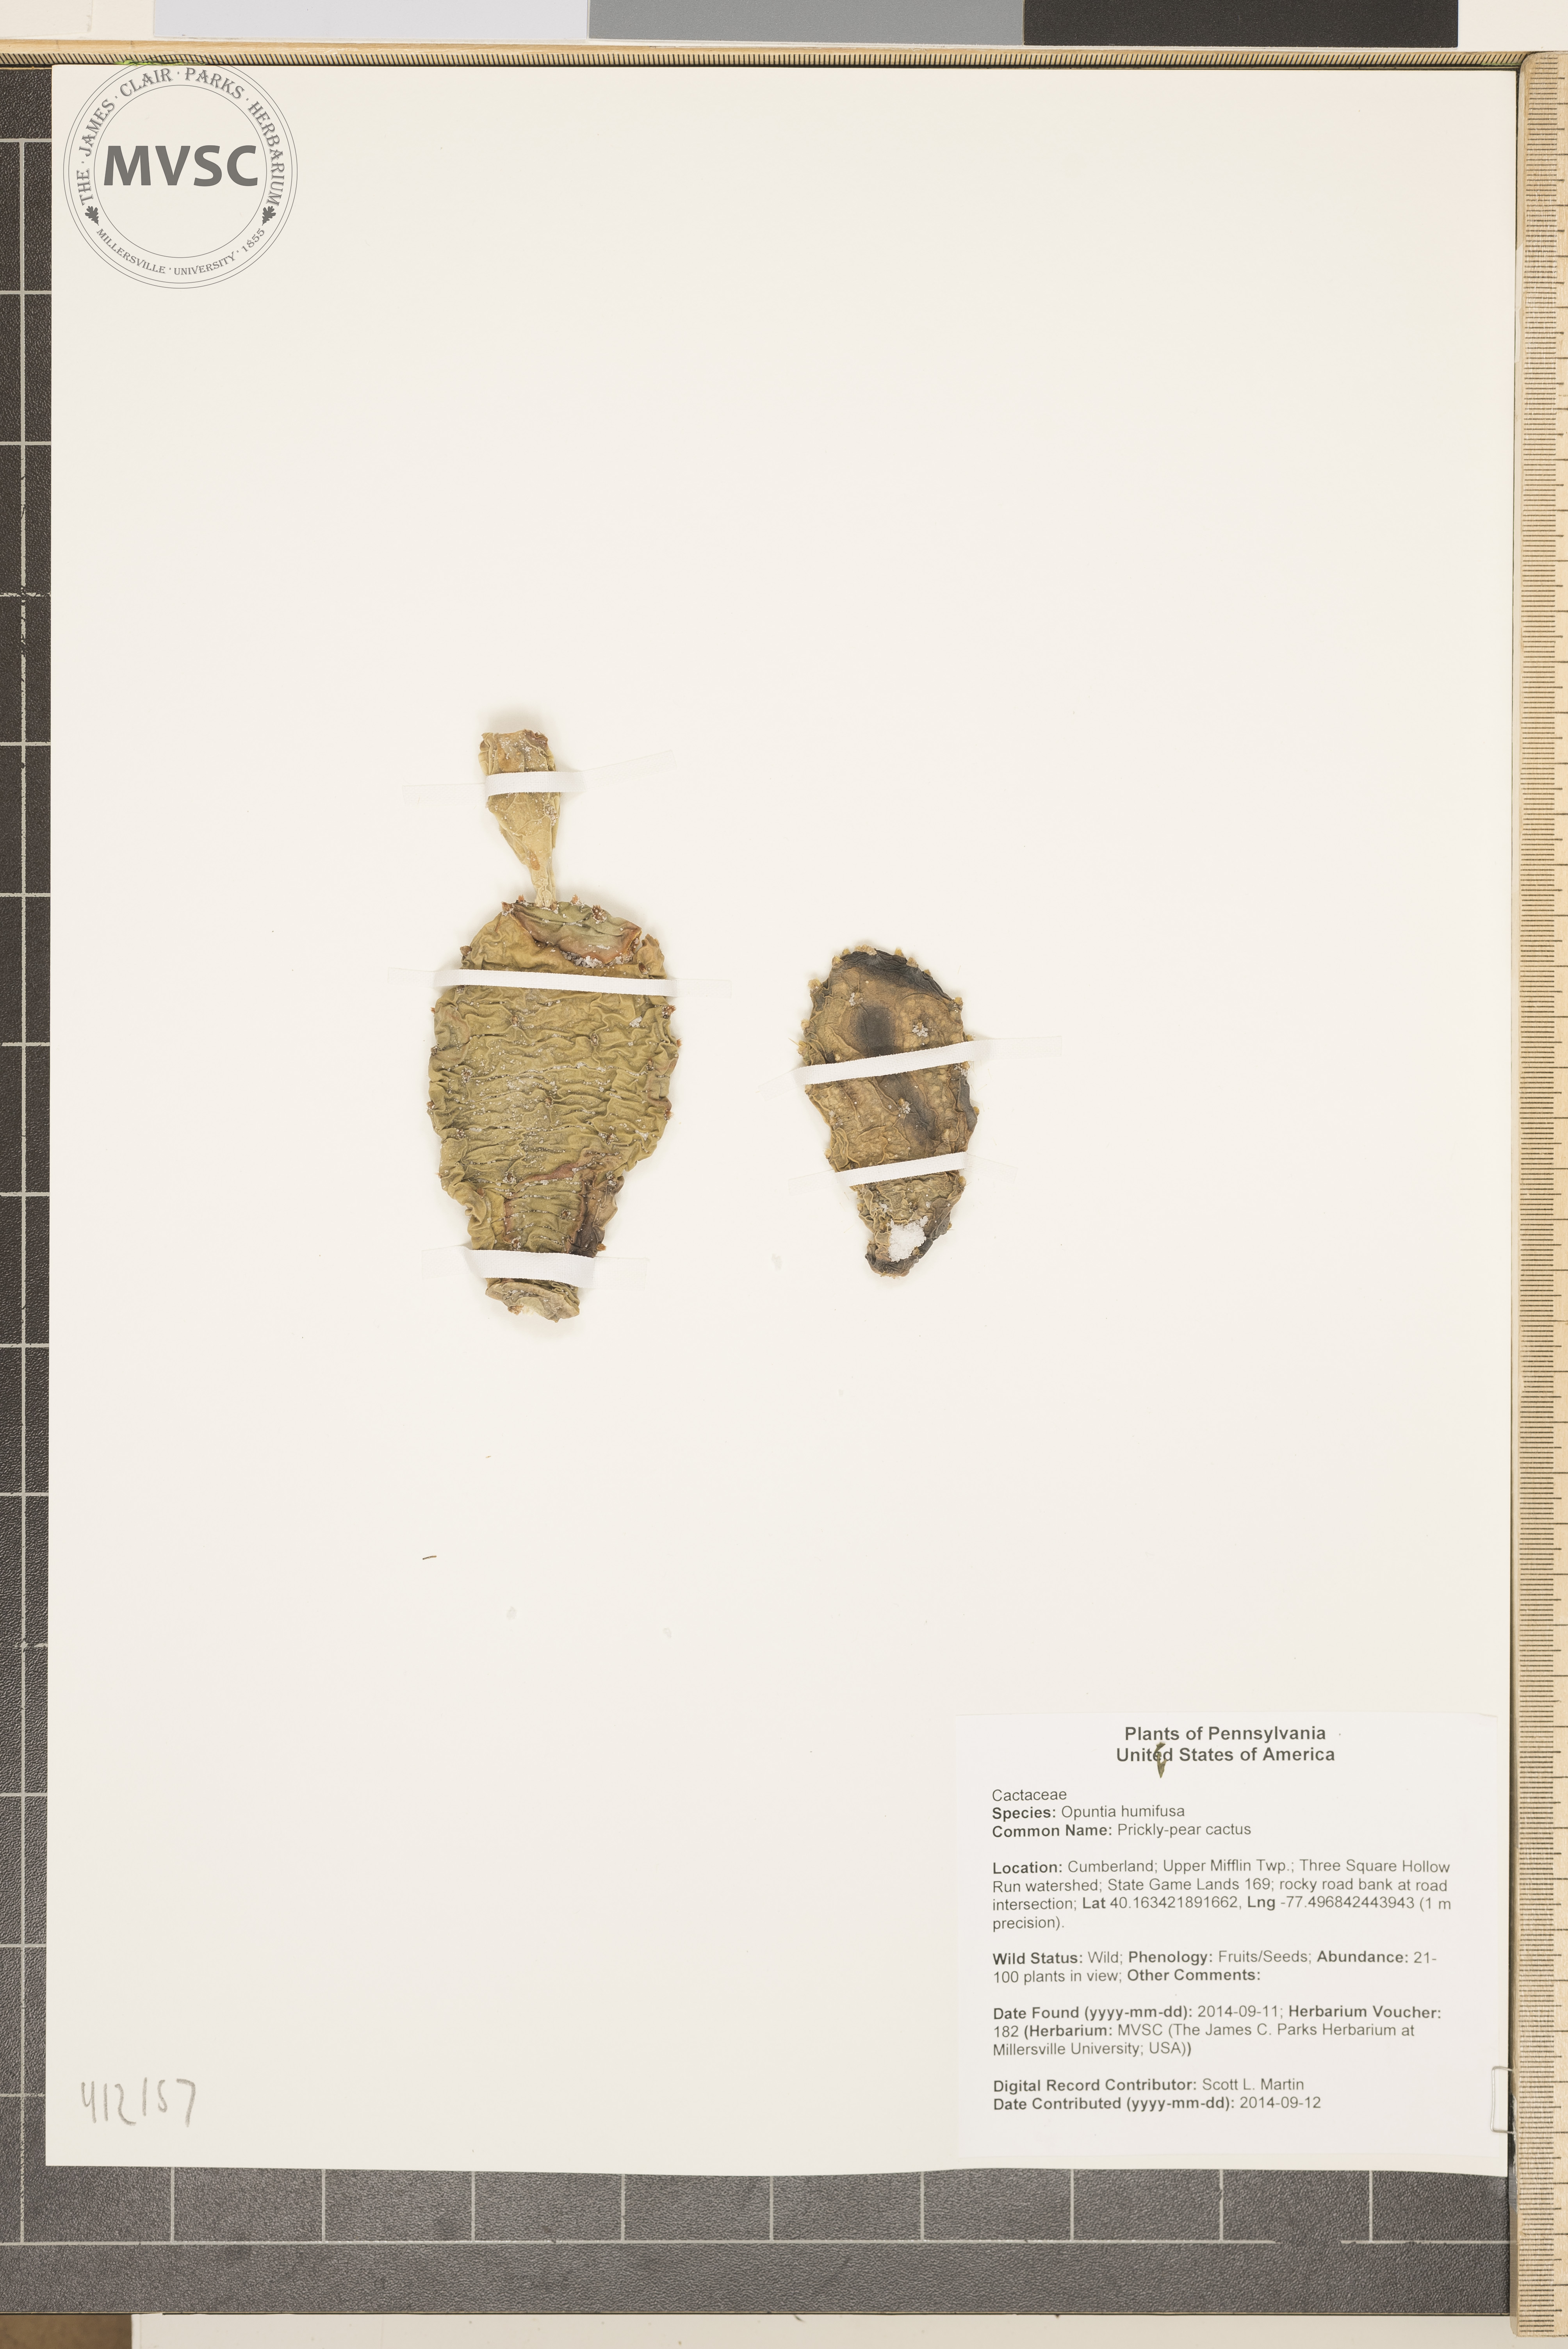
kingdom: Plantae
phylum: Tracheophyta
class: Magnoliopsida
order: Caryophyllales
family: Cactaceae
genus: Opuntia
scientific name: Opuntia humifusa
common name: Prickly-pear cactus
